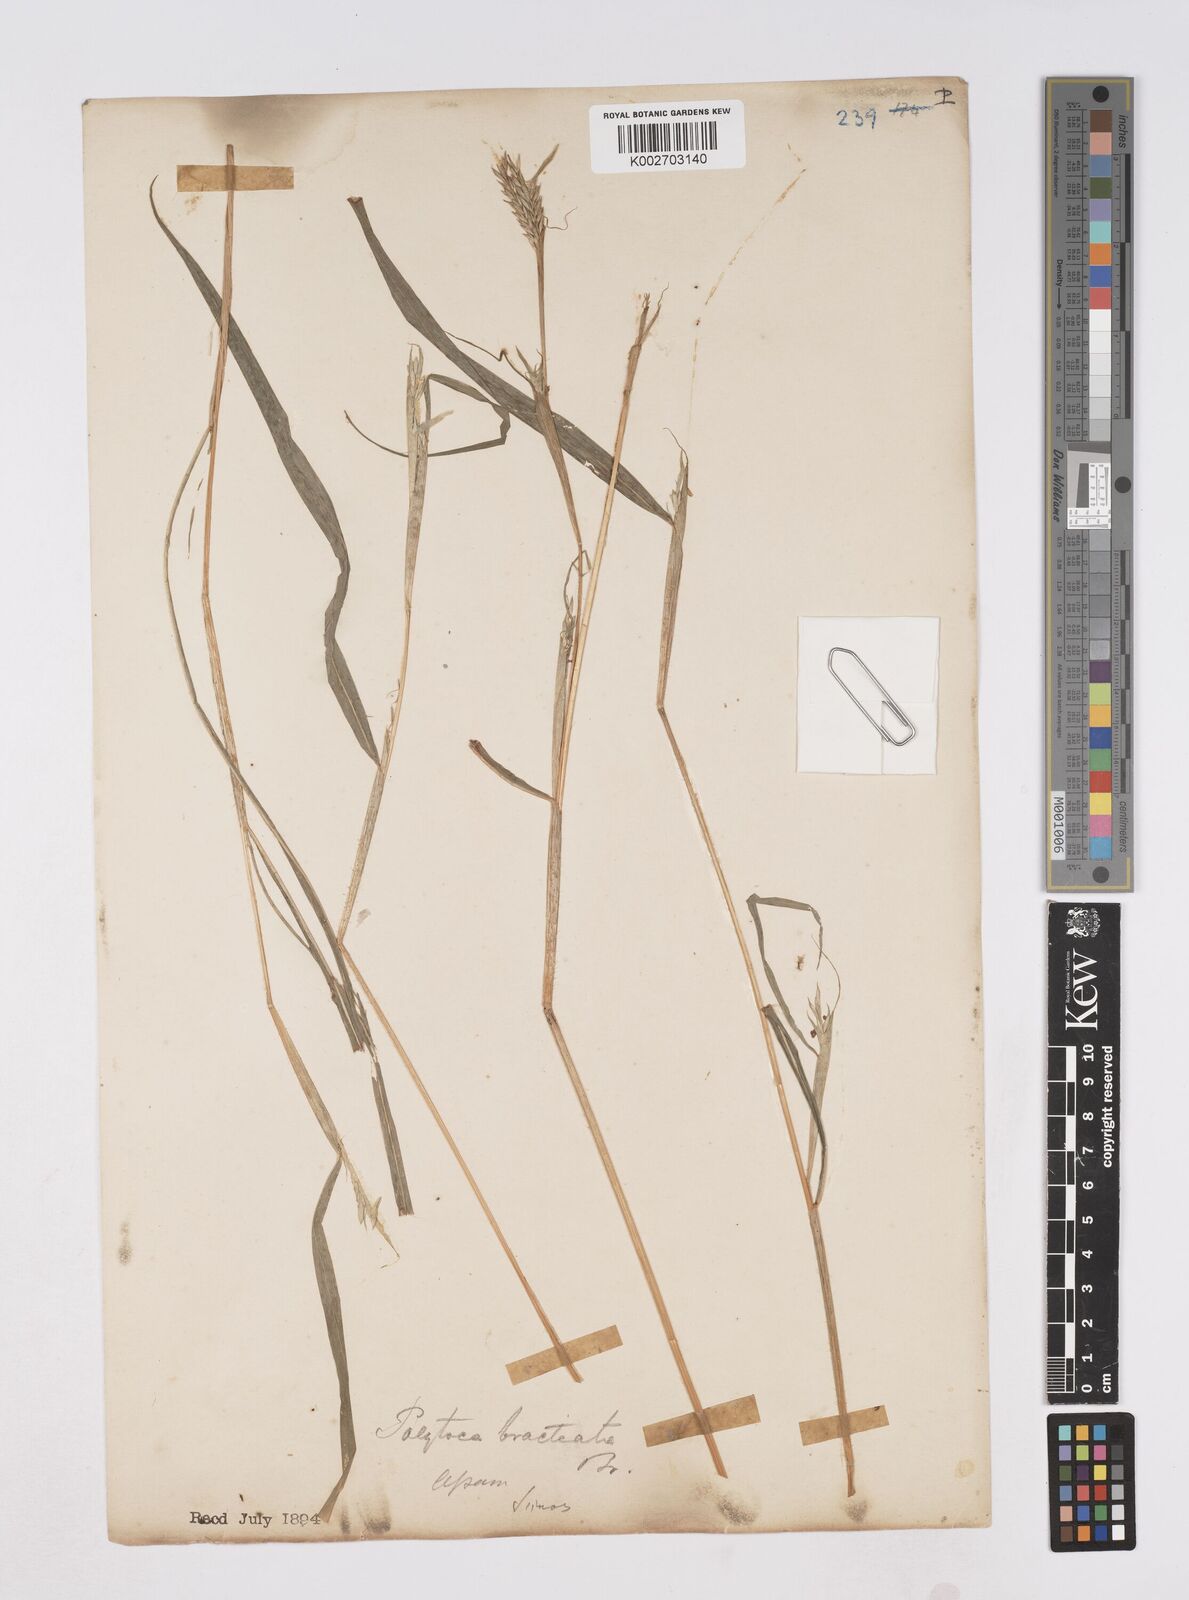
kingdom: Plantae
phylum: Tracheophyta
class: Liliopsida
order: Poales
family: Poaceae
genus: Polytoca
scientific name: Polytoca digitata
